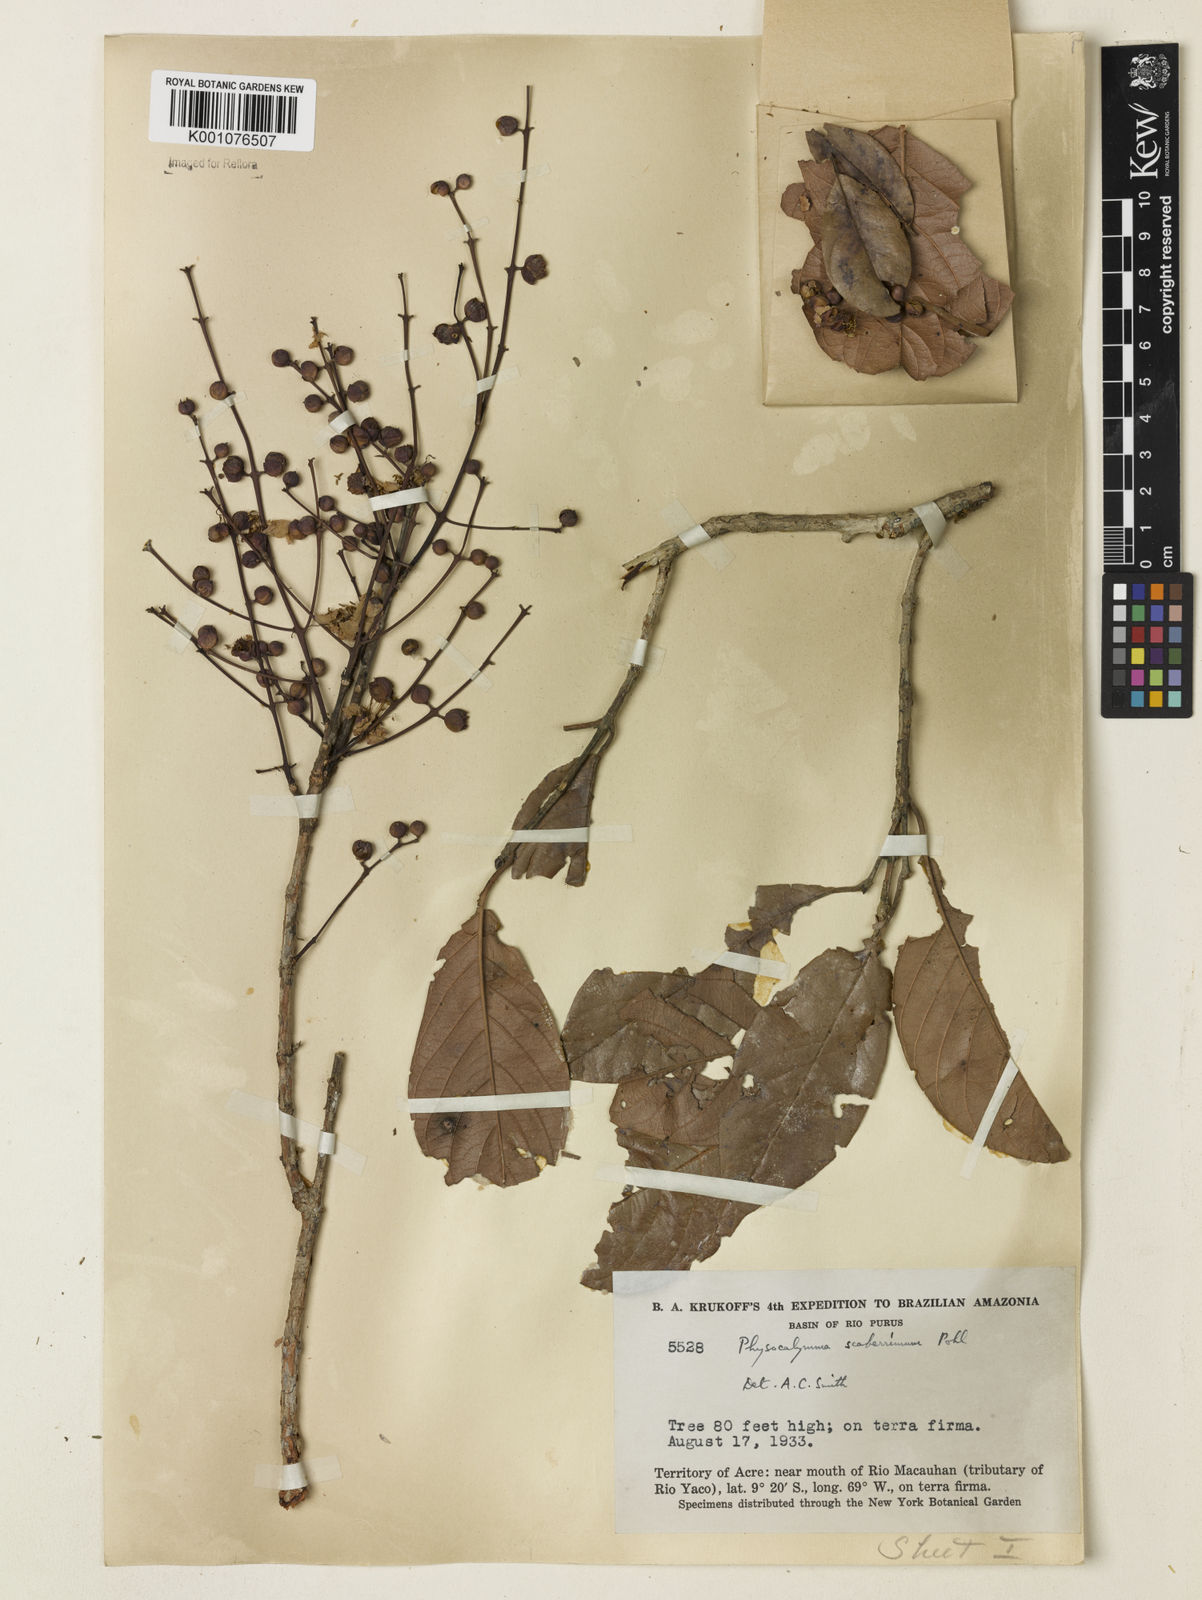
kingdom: Plantae
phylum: Tracheophyta
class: Magnoliopsida
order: Myrtales
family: Lythraceae
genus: Physocalymma
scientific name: Physocalymma scaberrimum
